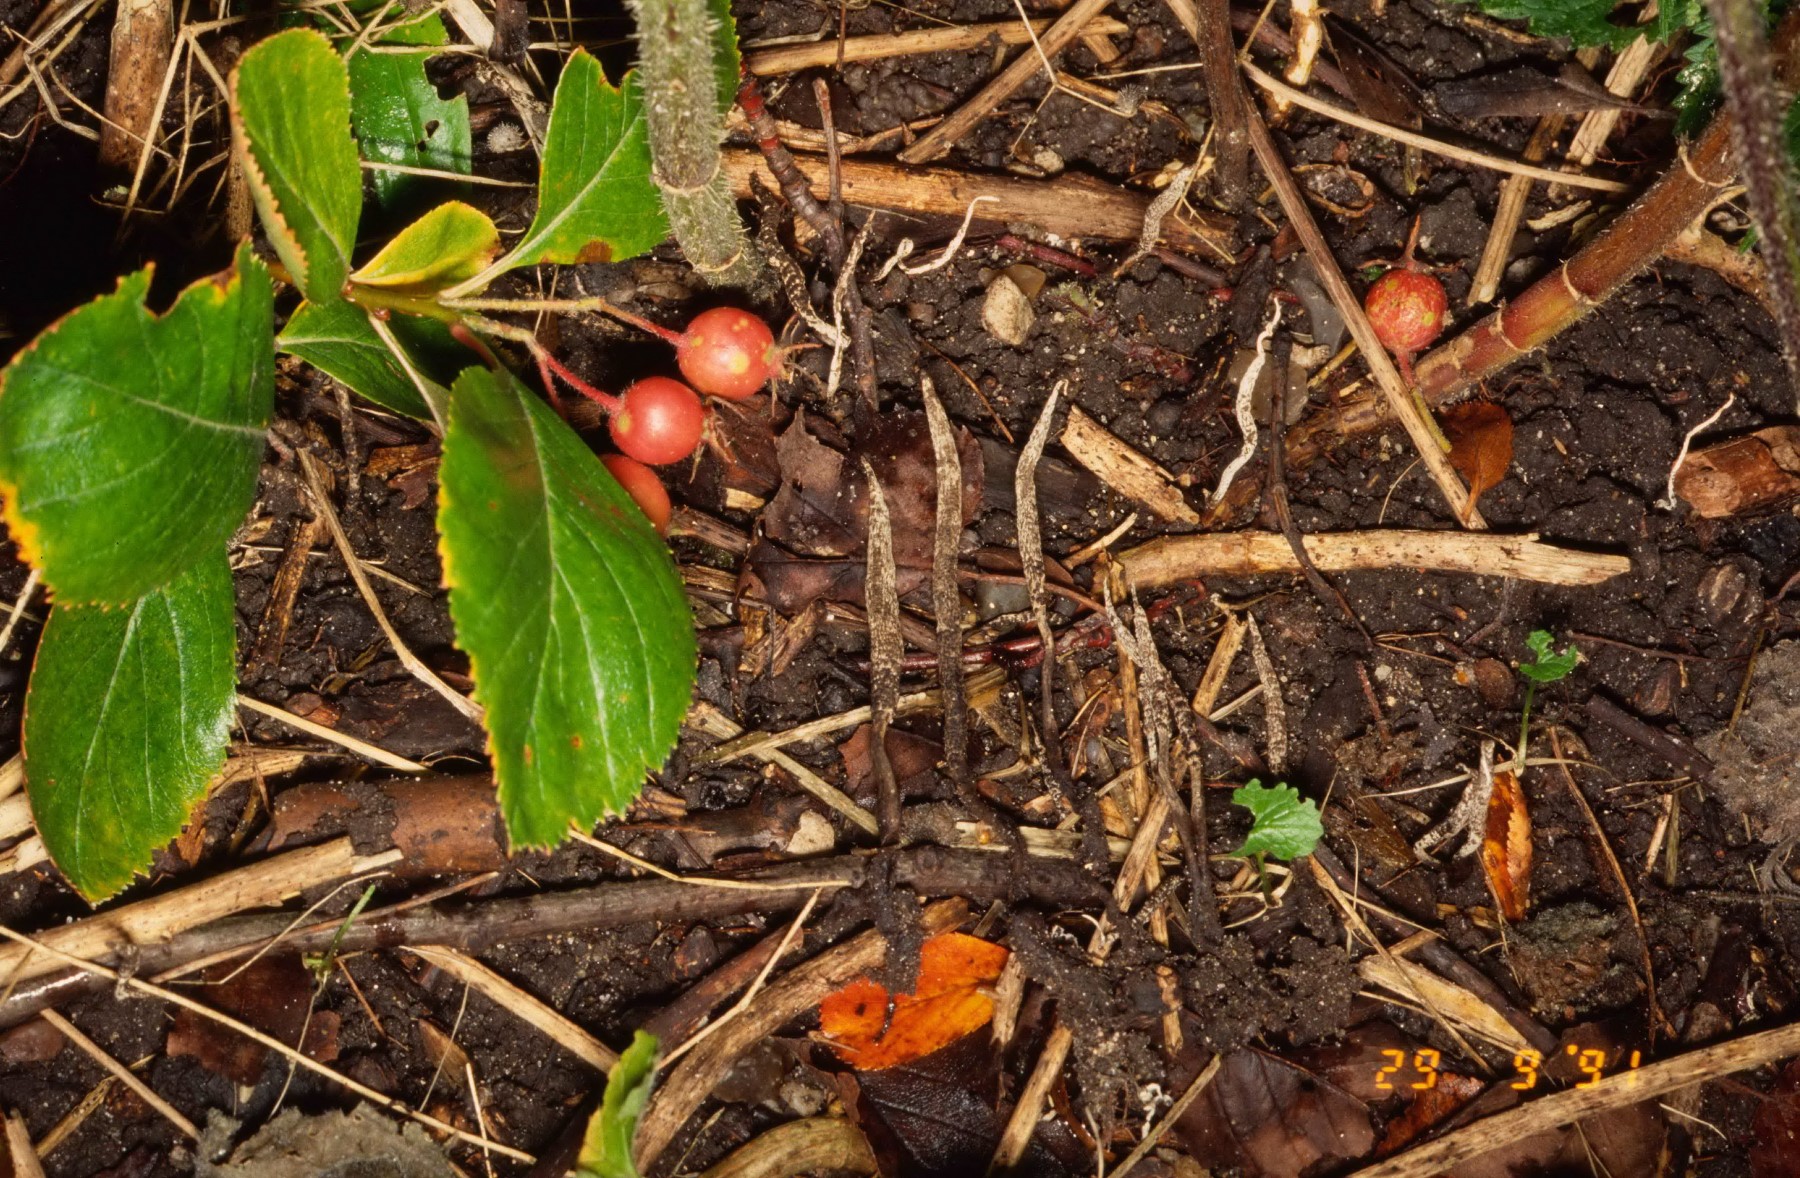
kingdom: Fungi
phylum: Ascomycota
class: Sordariomycetes
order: Xylariales
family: Xylariaceae
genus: Xylaria
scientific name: Xylaria oxyacanthae
